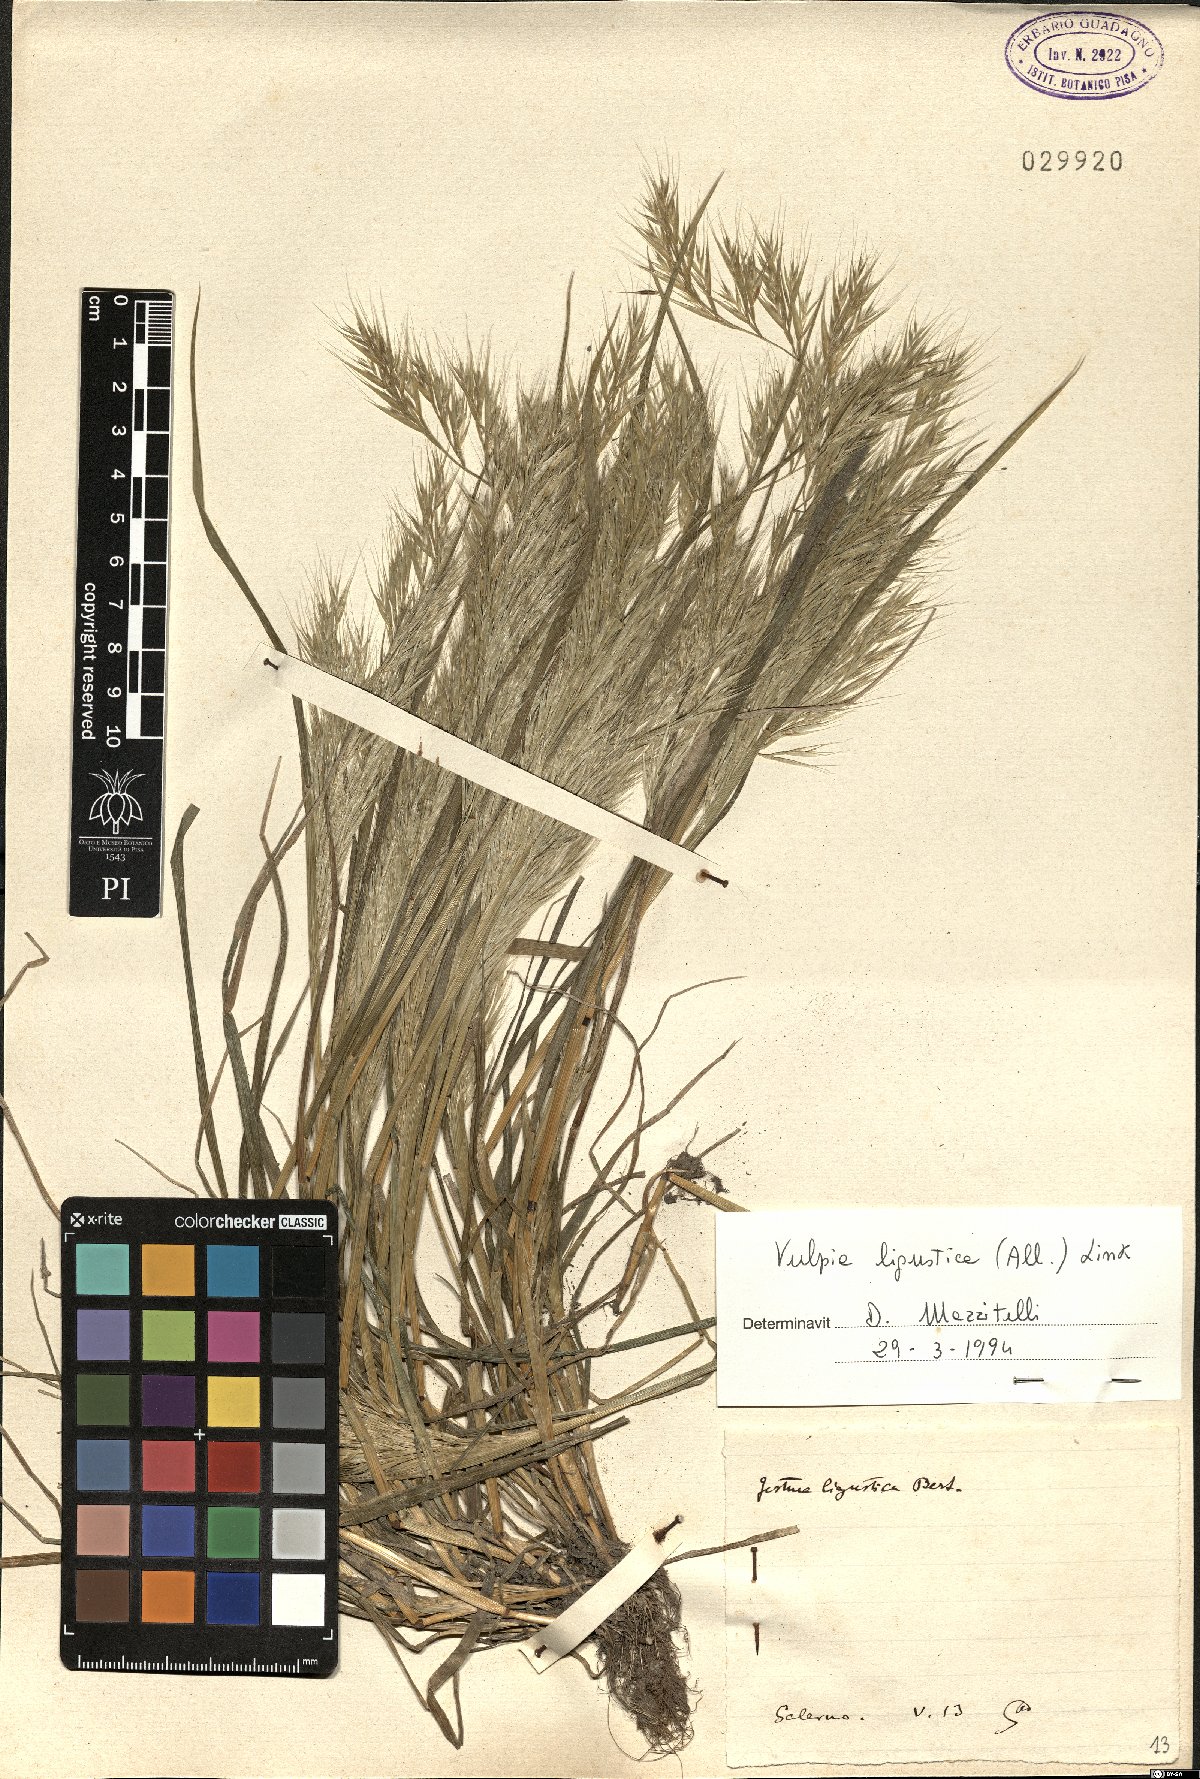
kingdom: Plantae
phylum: Tracheophyta
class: Liliopsida
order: Poales
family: Poaceae
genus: Festuca
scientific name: Festuca ligustica
